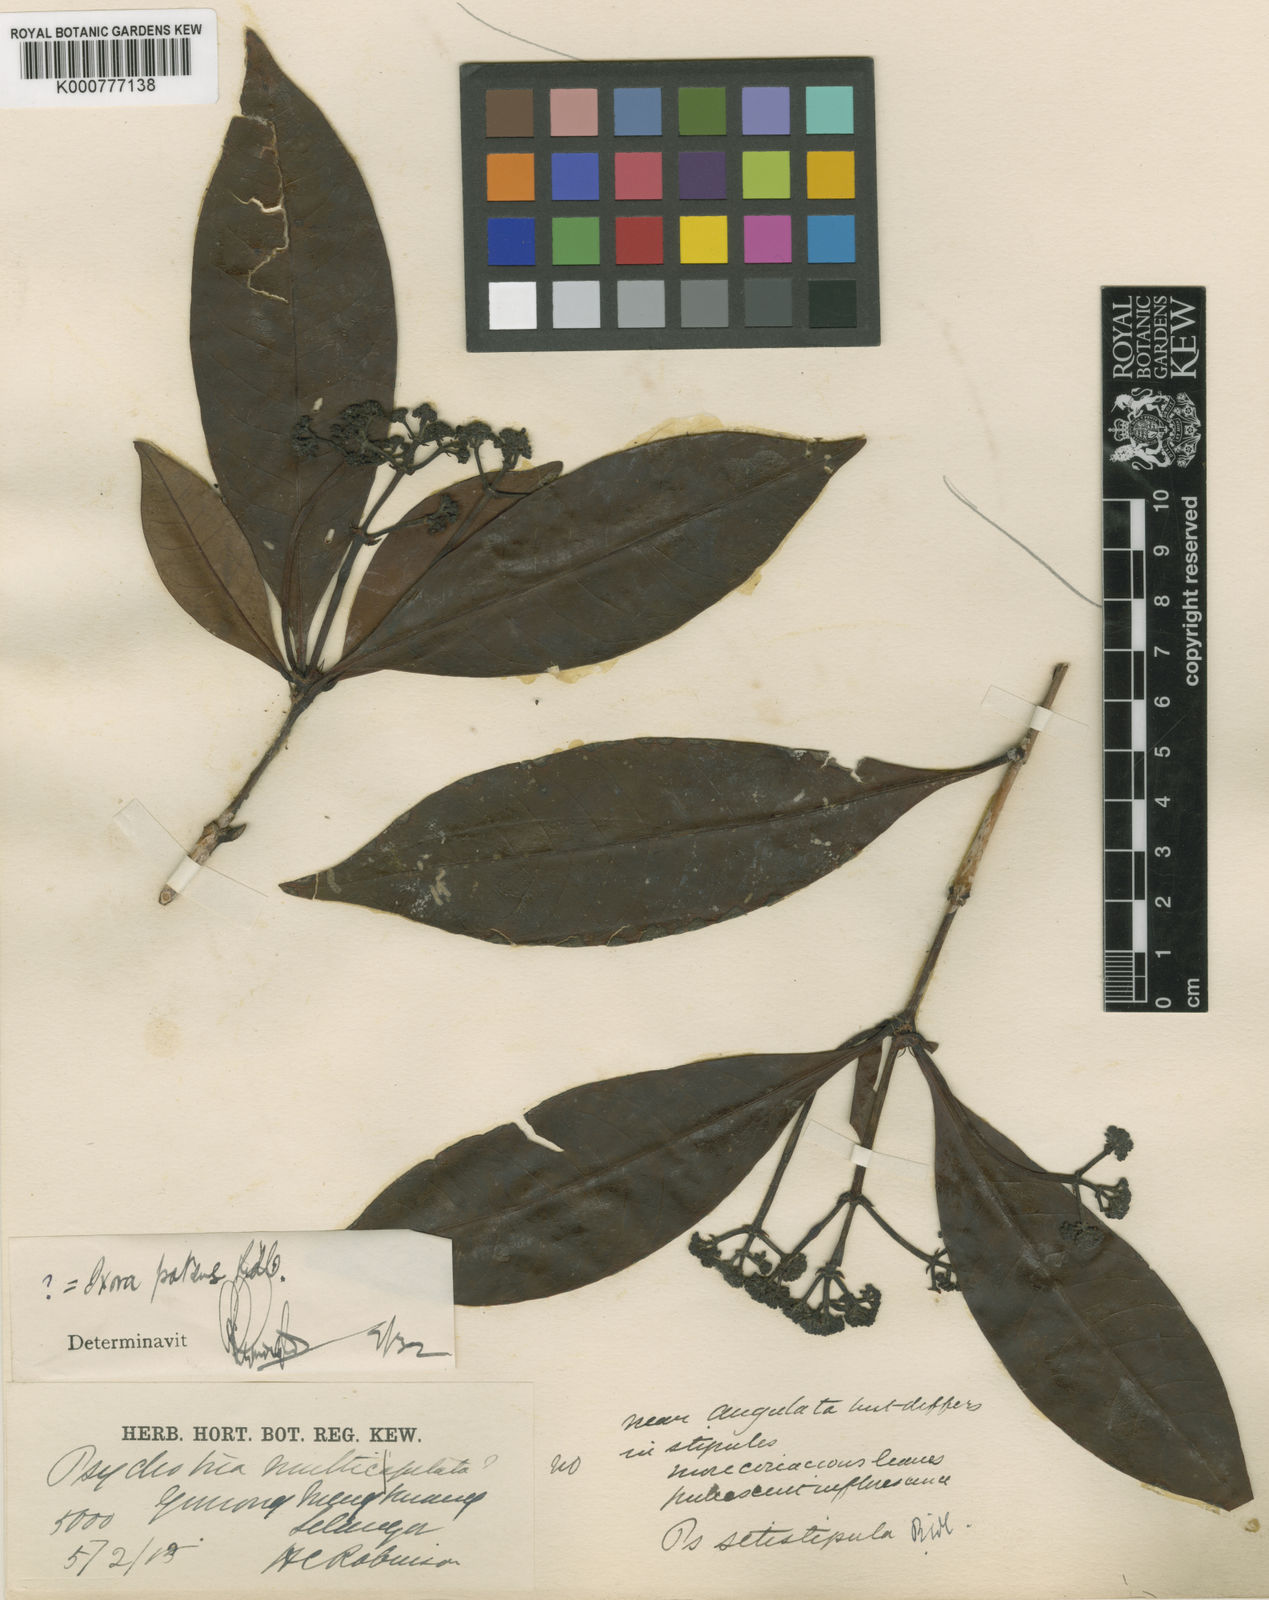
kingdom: Plantae
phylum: Tracheophyta
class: Magnoliopsida
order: Gentianales
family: Rubiaceae
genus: Psychotria
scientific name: Psychotria setistipula
